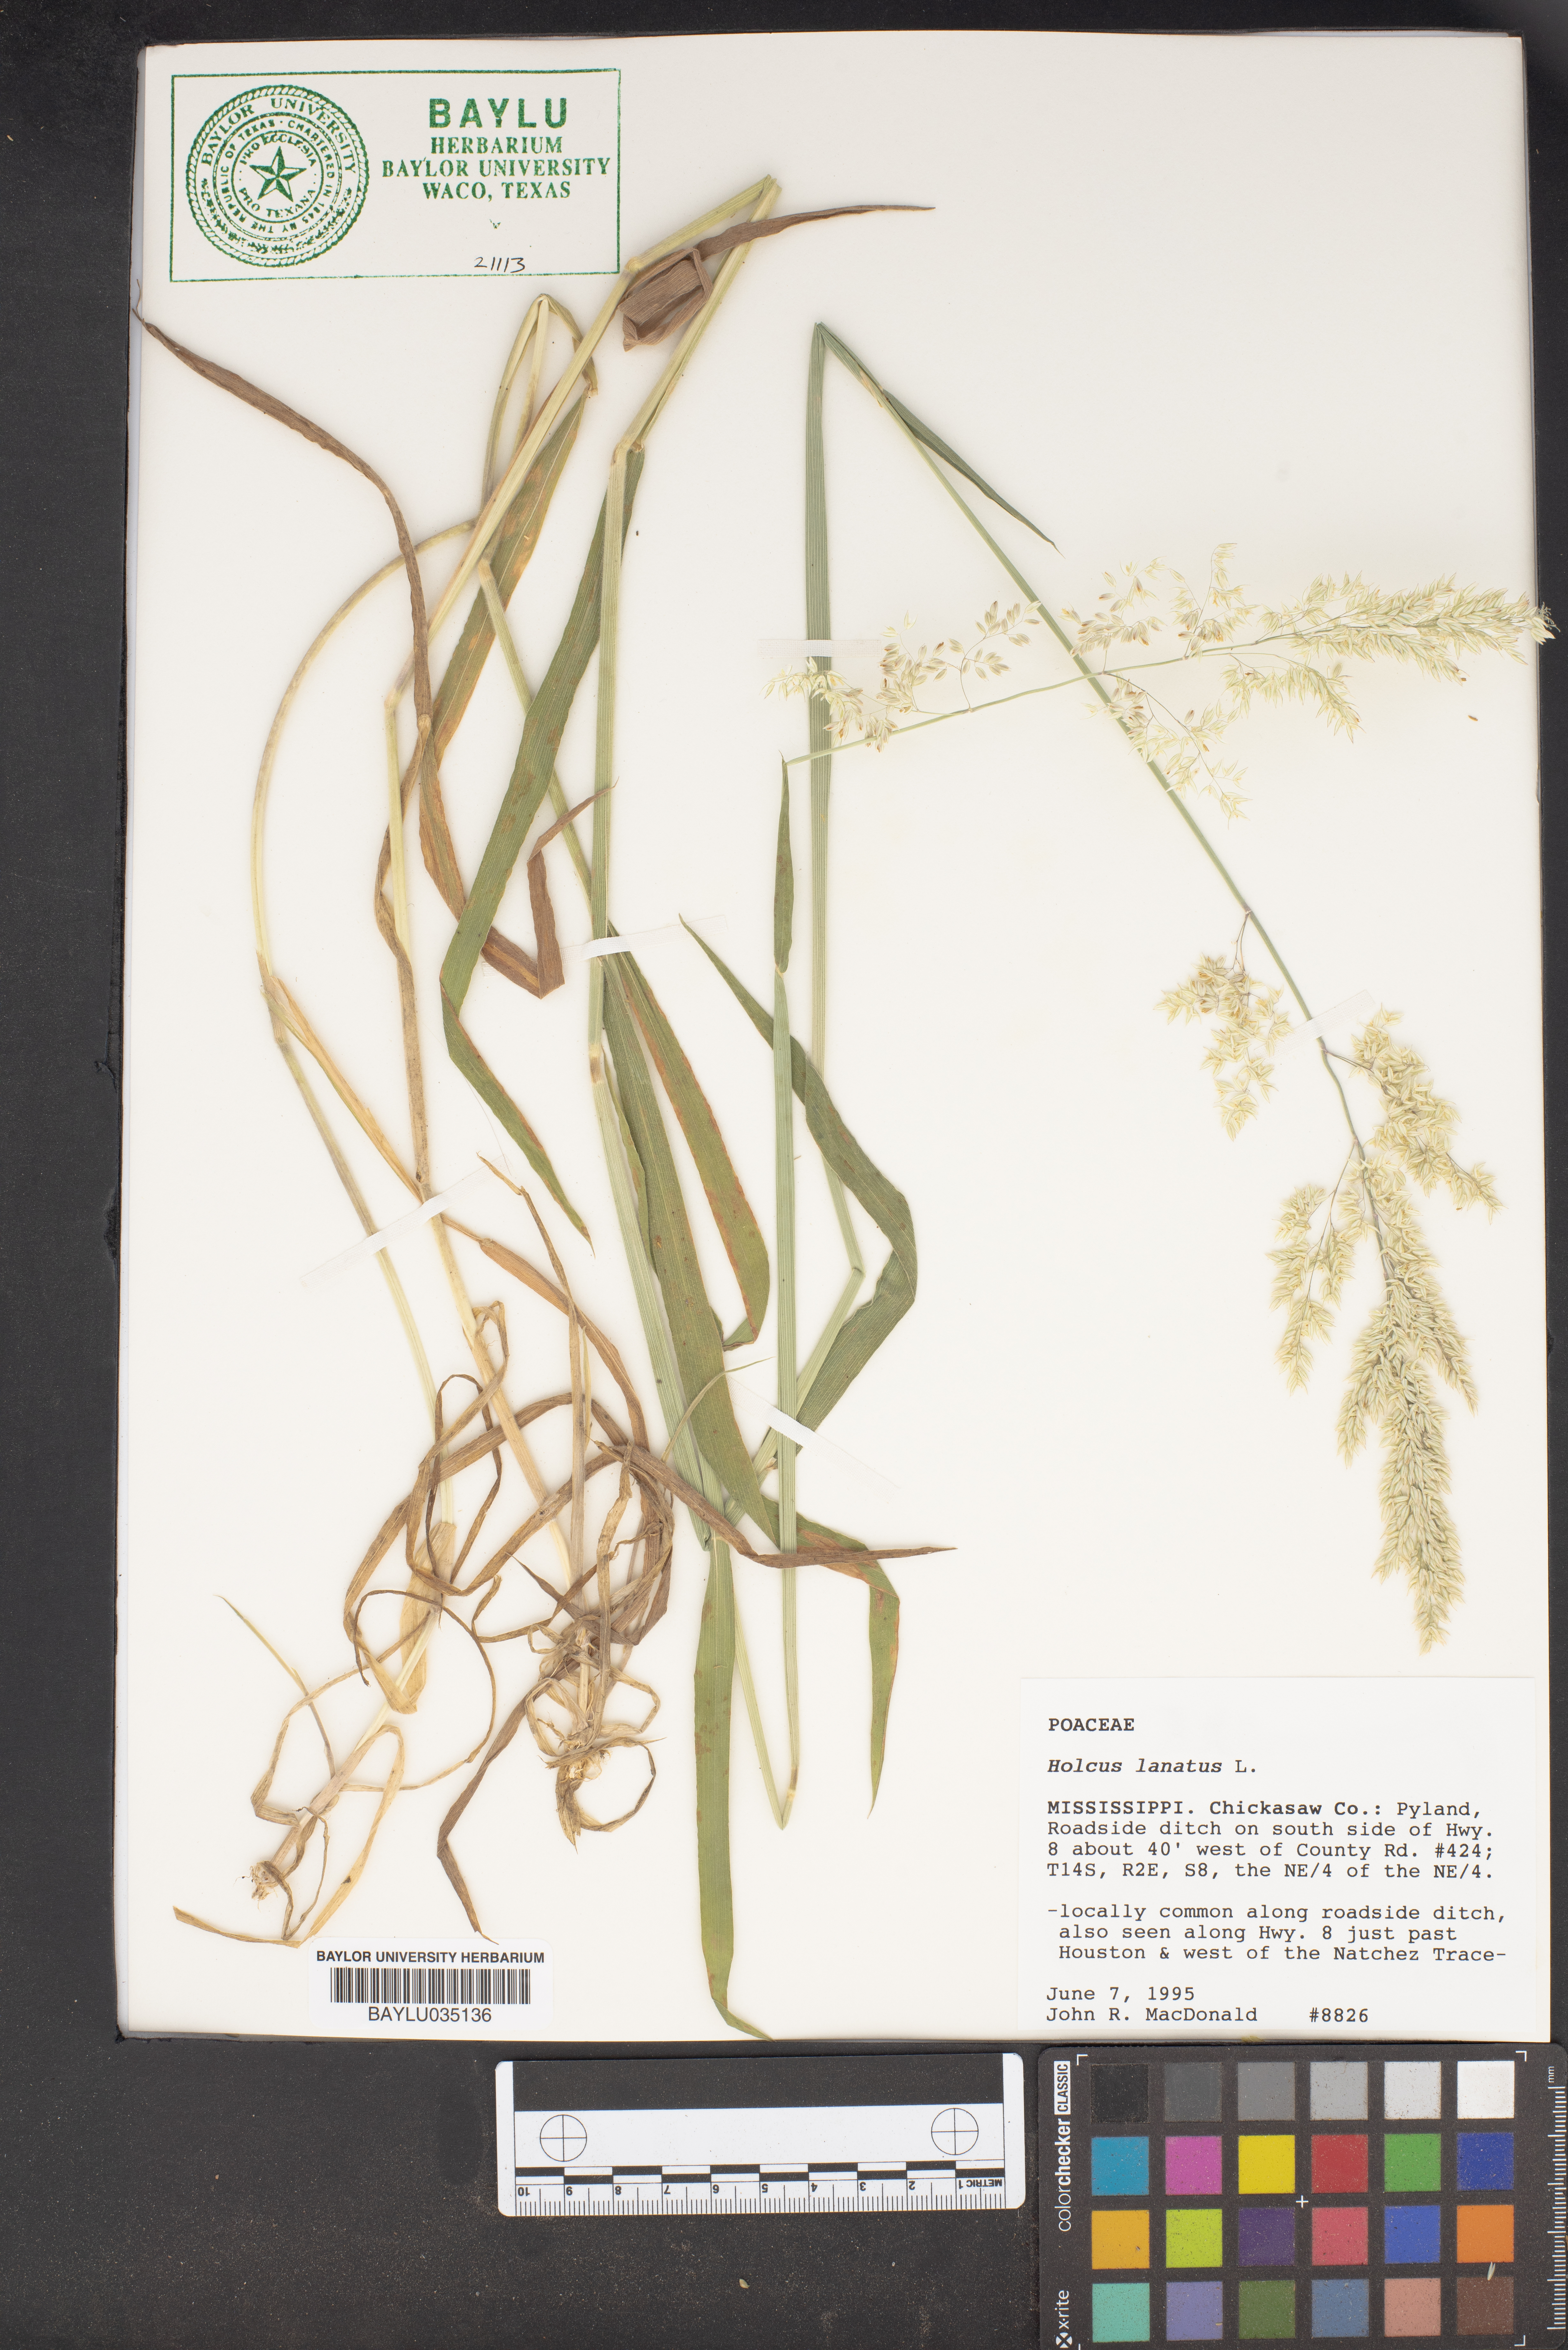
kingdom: Plantae
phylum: Tracheophyta
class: Liliopsida
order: Poales
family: Poaceae
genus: Holcus
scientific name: Holcus lanatus
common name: Yorkshire-fog
